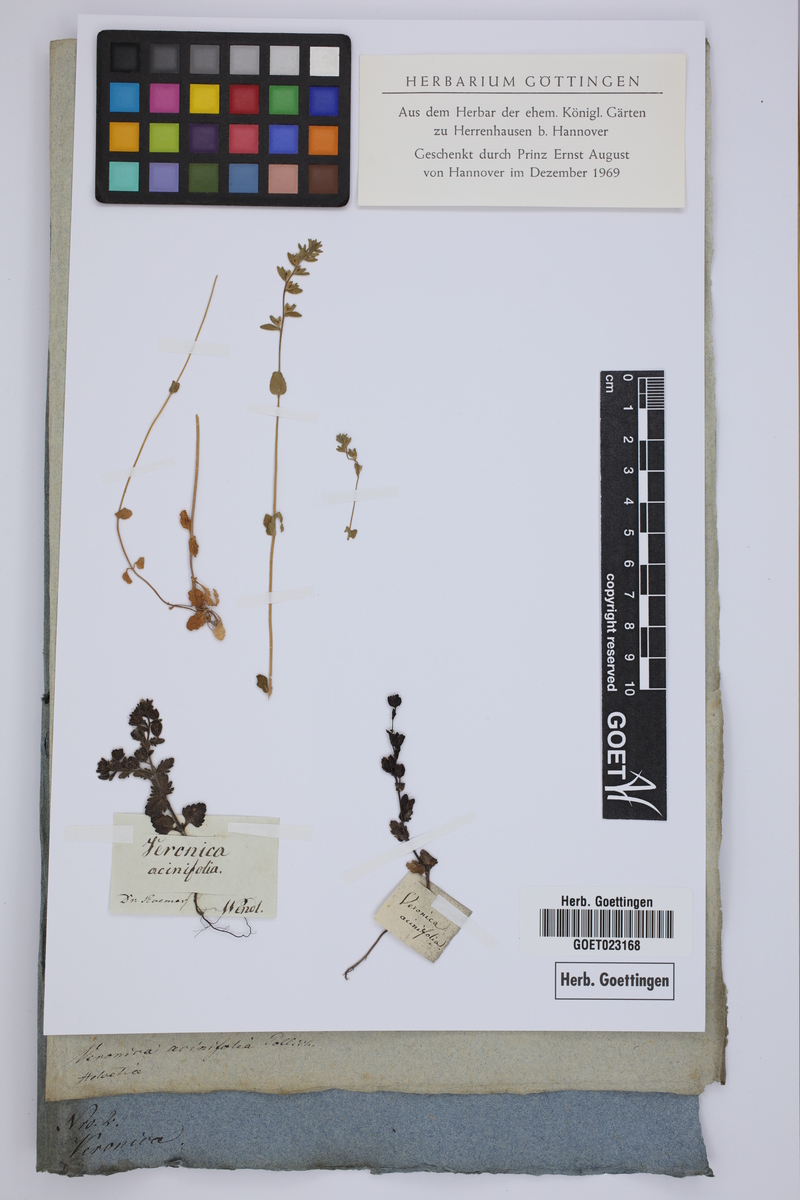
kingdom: Plantae
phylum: Tracheophyta
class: Magnoliopsida
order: Lamiales
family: Plantaginaceae
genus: Veronica
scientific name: Veronica acinifolia
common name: French speedwell
